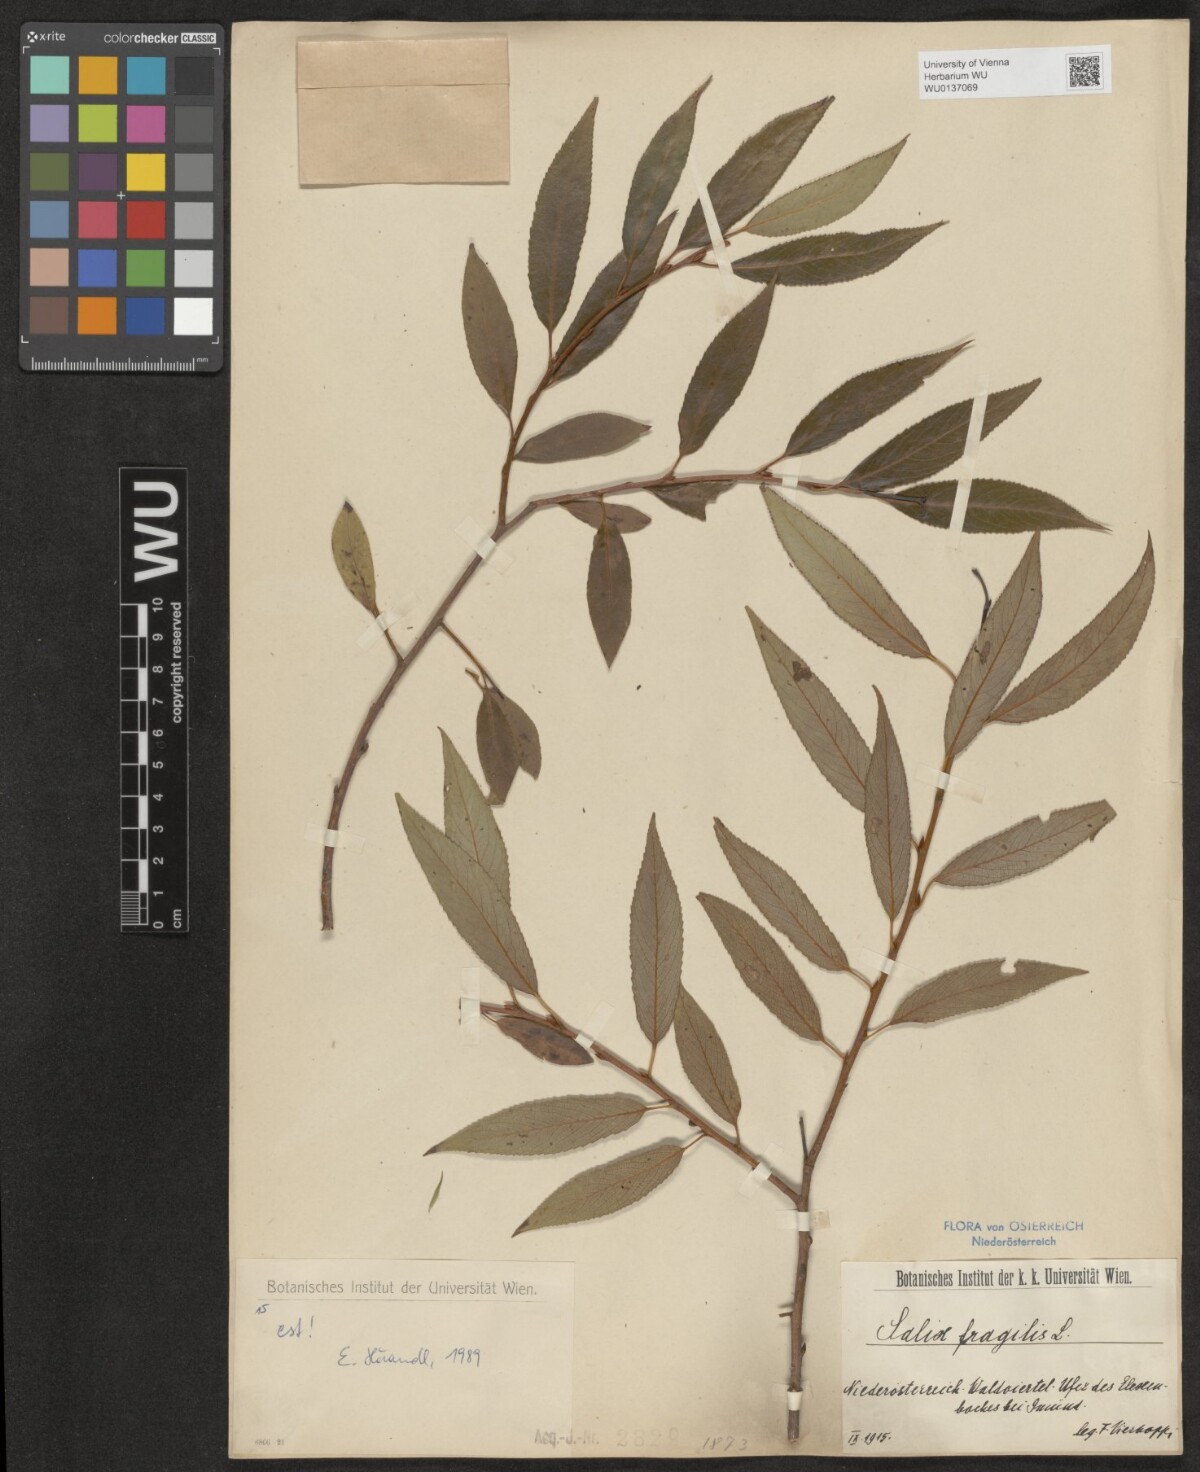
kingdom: Plantae
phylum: Tracheophyta
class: Magnoliopsida
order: Malpighiales
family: Salicaceae
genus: Salix
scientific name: Salix fragilis
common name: Crack willow
